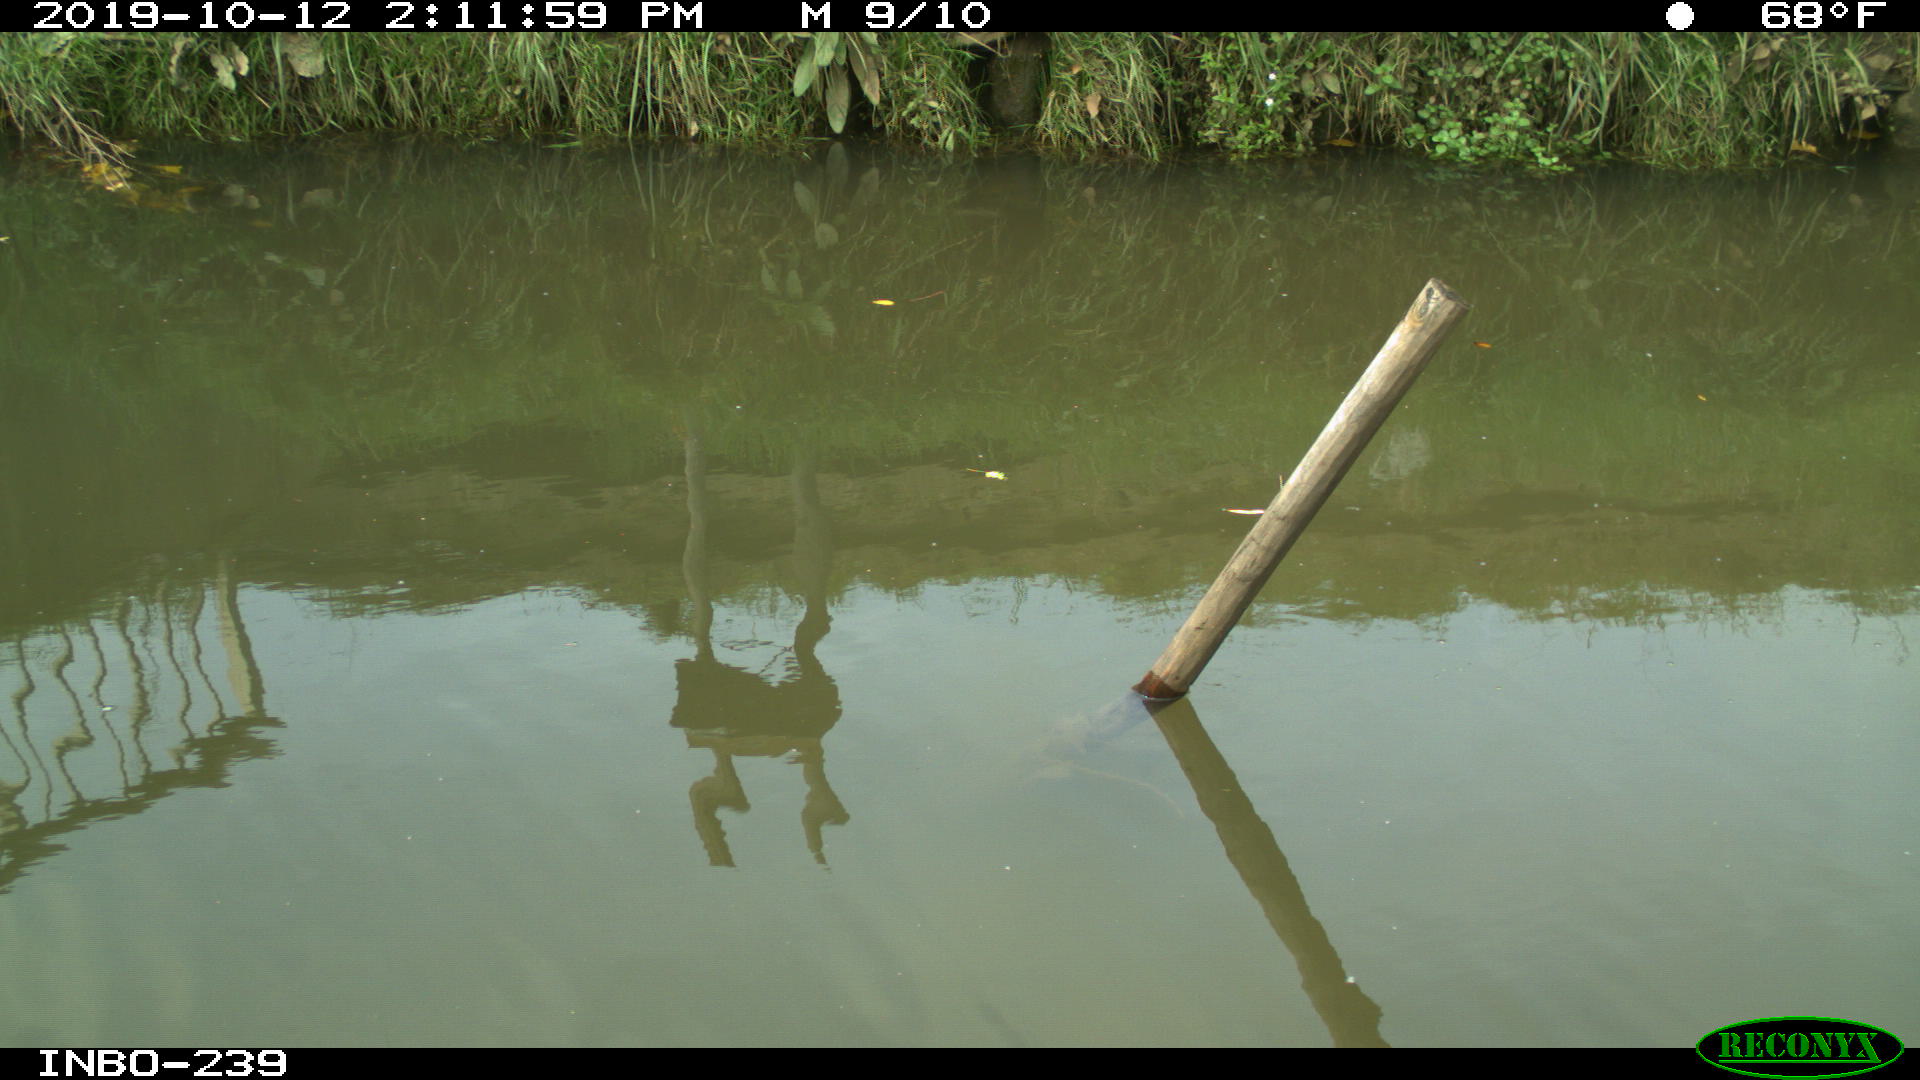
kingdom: Animalia
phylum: Chordata
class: Aves
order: Gruiformes
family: Rallidae
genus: Gallinula
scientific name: Gallinula chloropus
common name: Common moorhen
